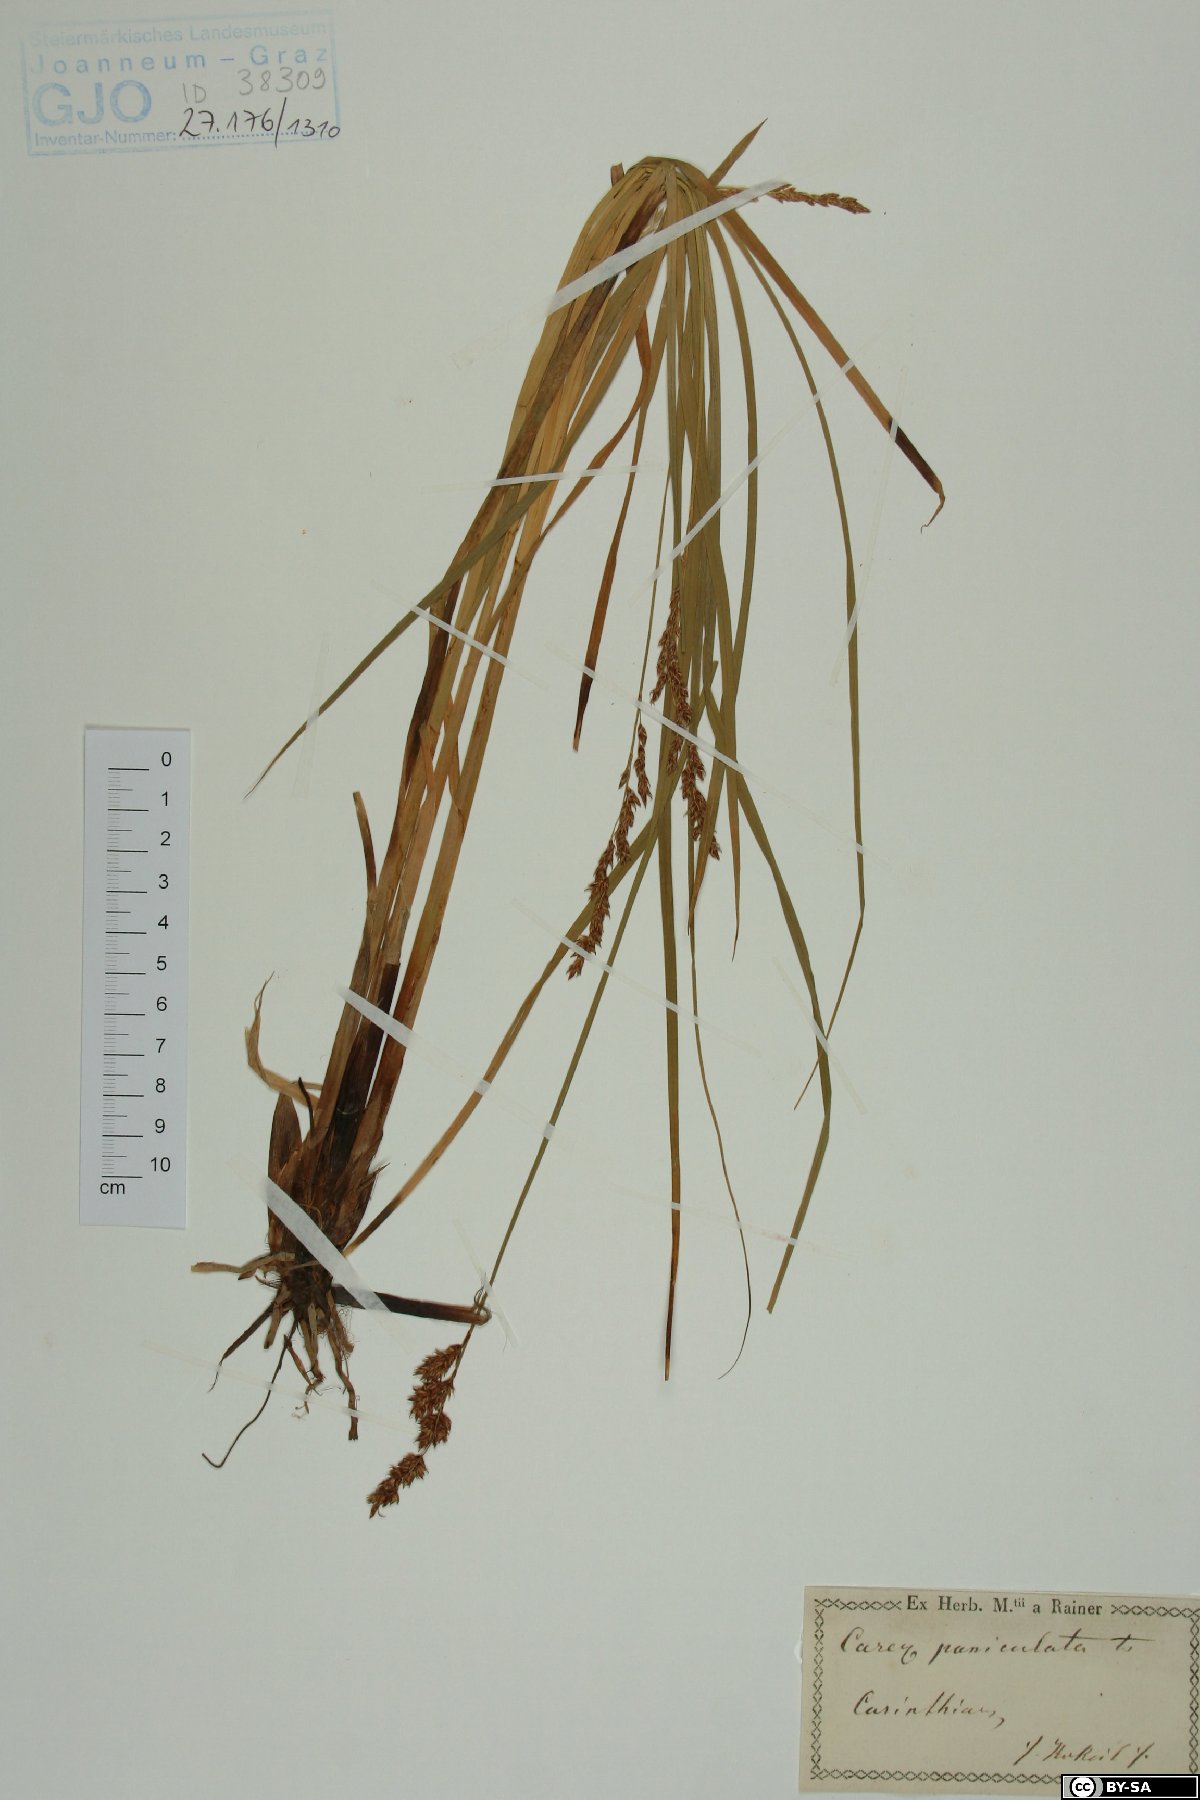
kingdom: Plantae
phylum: Tracheophyta
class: Liliopsida
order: Poales
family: Cyperaceae
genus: Carex
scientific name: Carex paniculata
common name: Greater tussock-sedge
